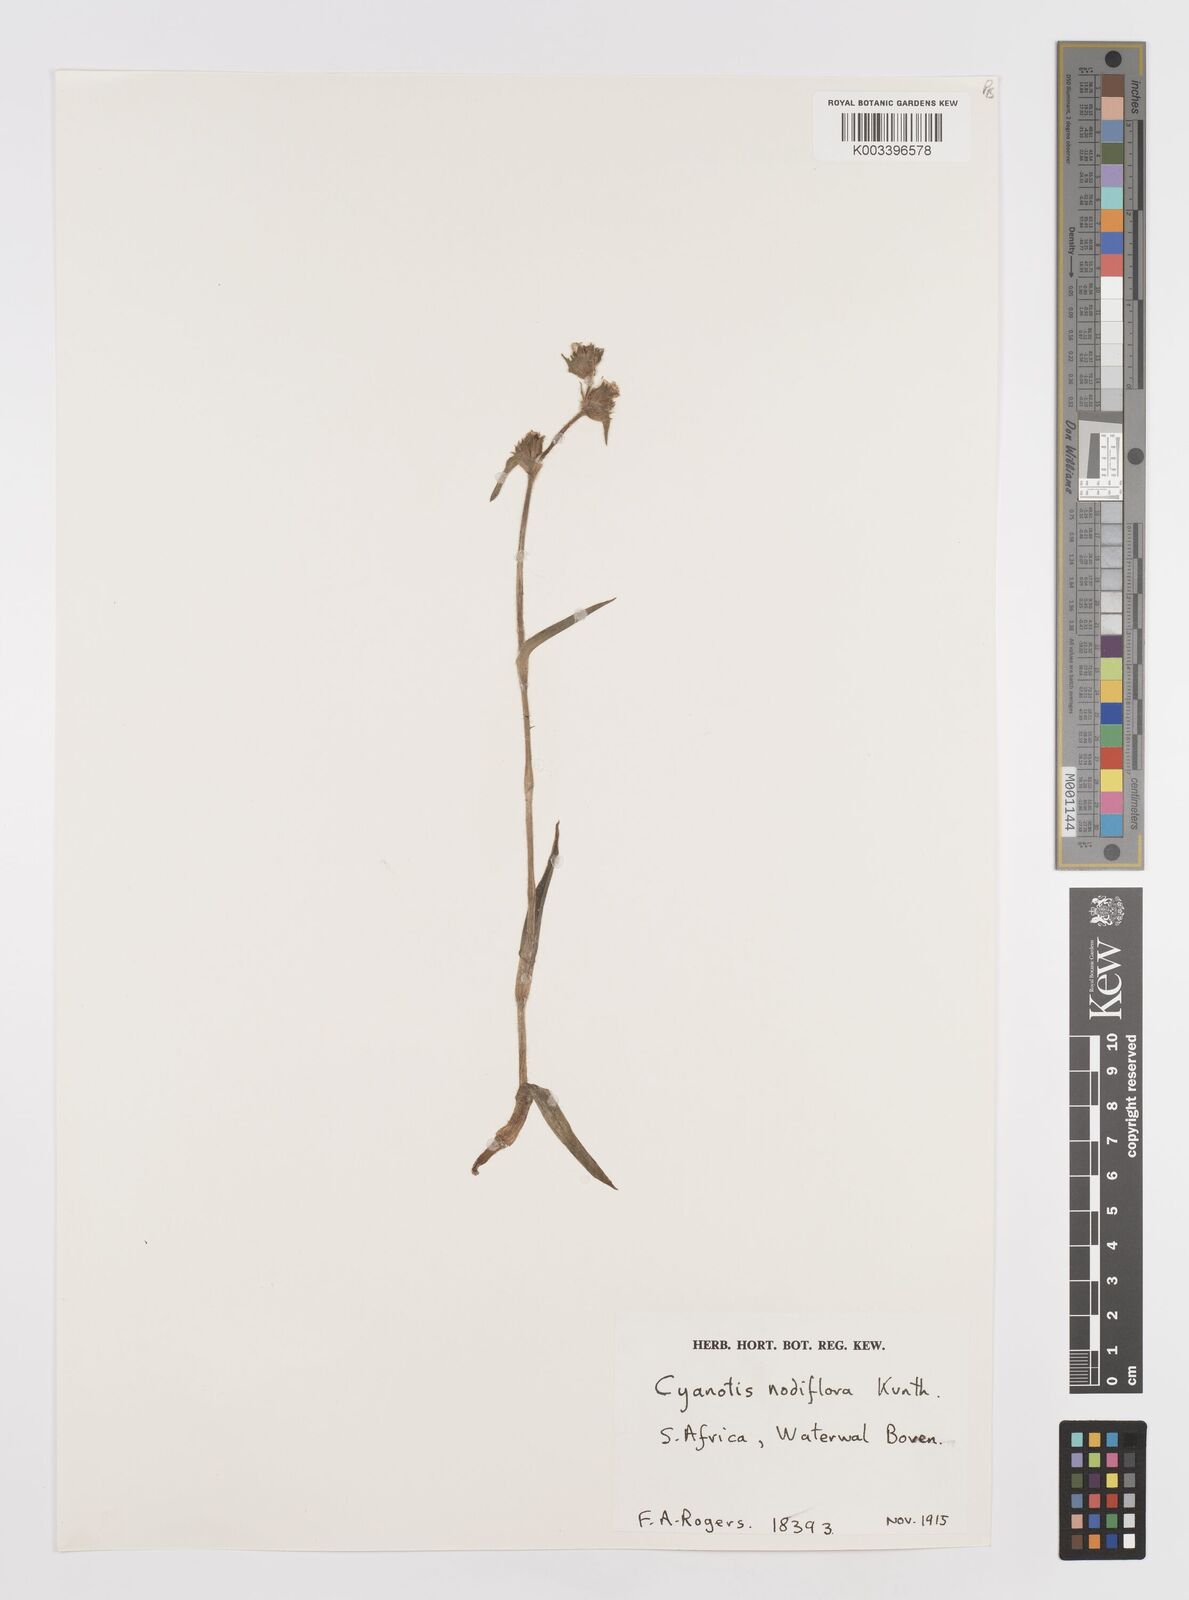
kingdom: Plantae
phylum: Tracheophyta
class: Liliopsida
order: Commelinales
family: Commelinaceae
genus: Cyanotis
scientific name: Cyanotis speciosa
